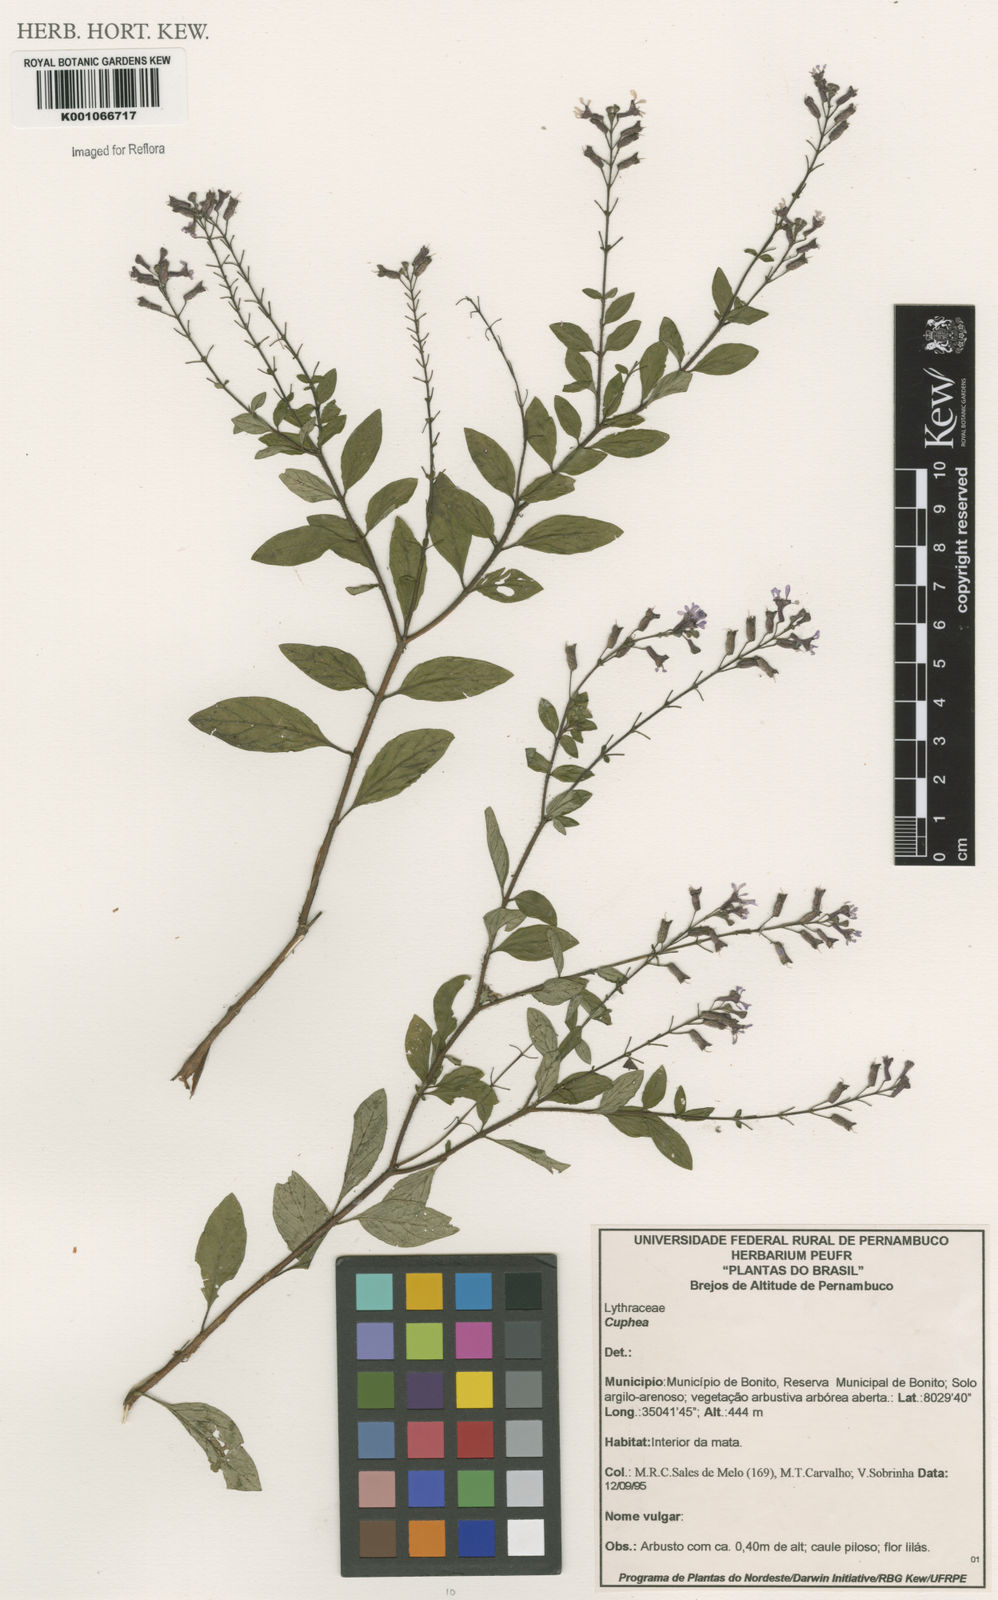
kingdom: Plantae
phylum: Tracheophyta
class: Magnoliopsida
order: Myrtales
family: Lythraceae
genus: Cuphea
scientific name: Cuphea
